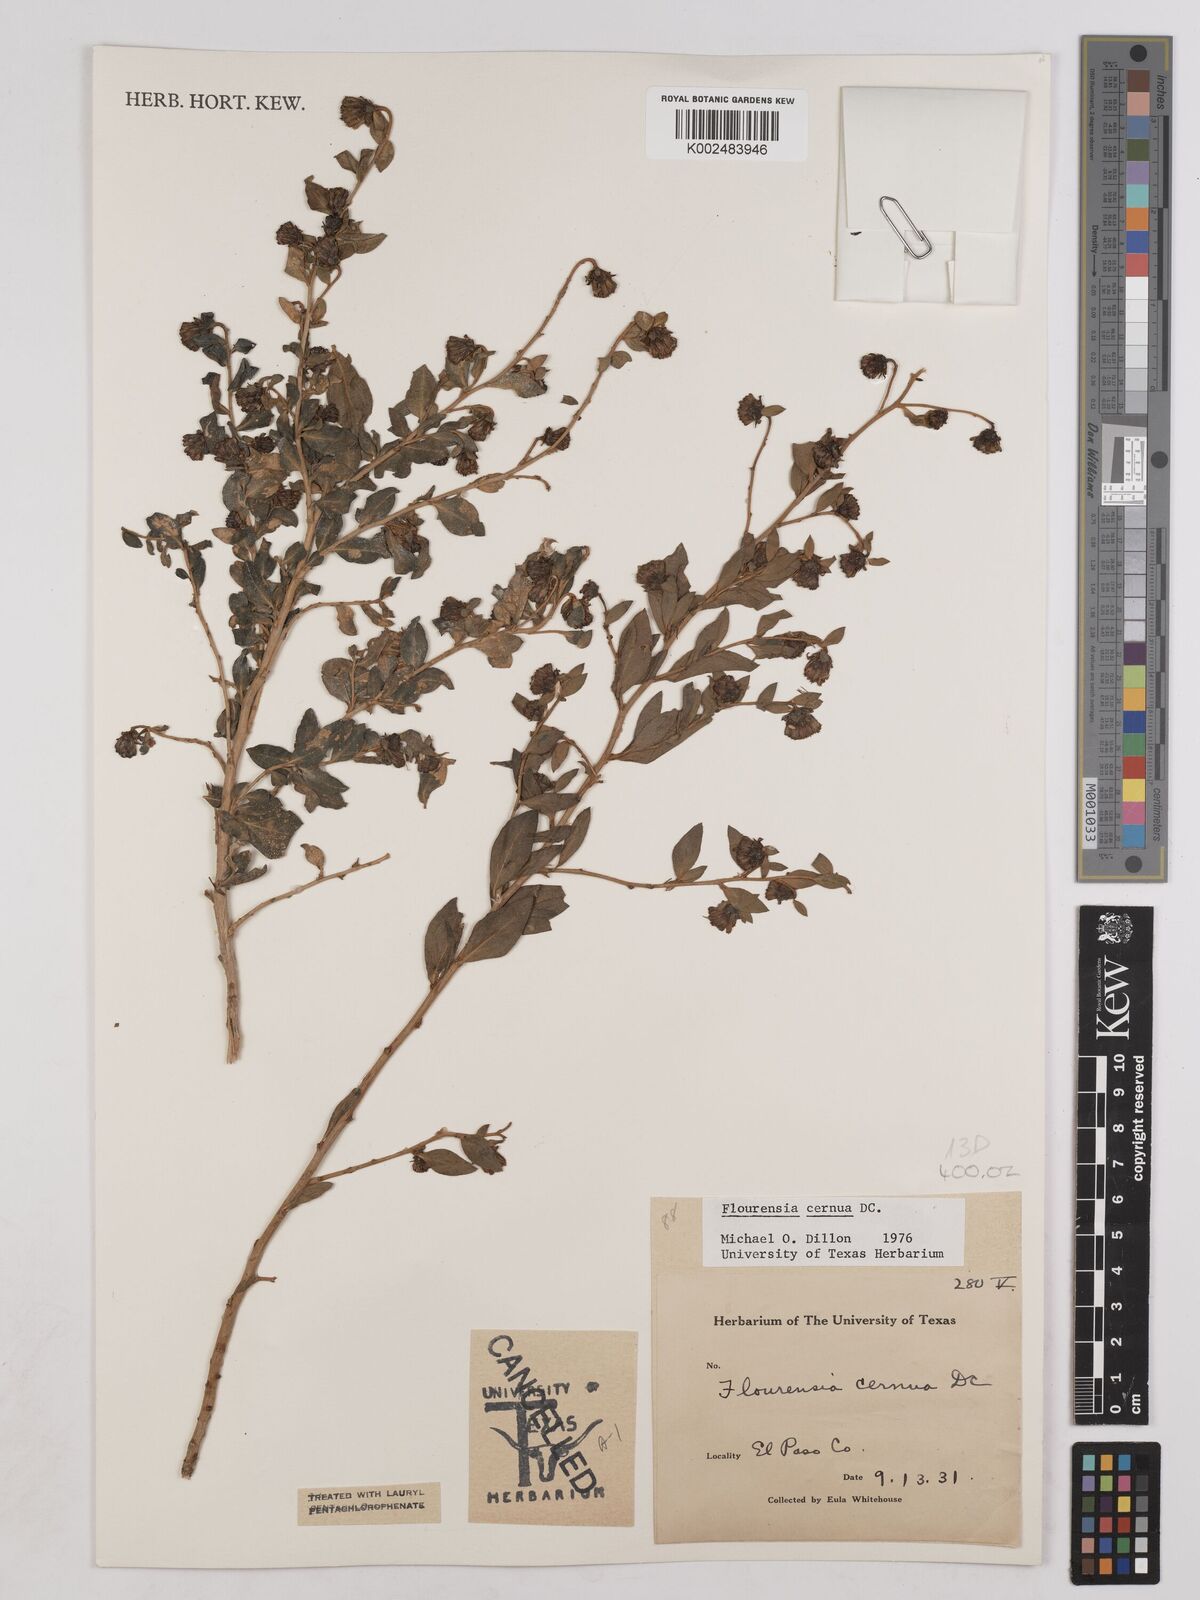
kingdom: Plantae
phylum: Tracheophyta
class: Magnoliopsida
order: Asterales
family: Asteraceae
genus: Flourensia
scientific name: Flourensia cernua
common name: Varnishbush
